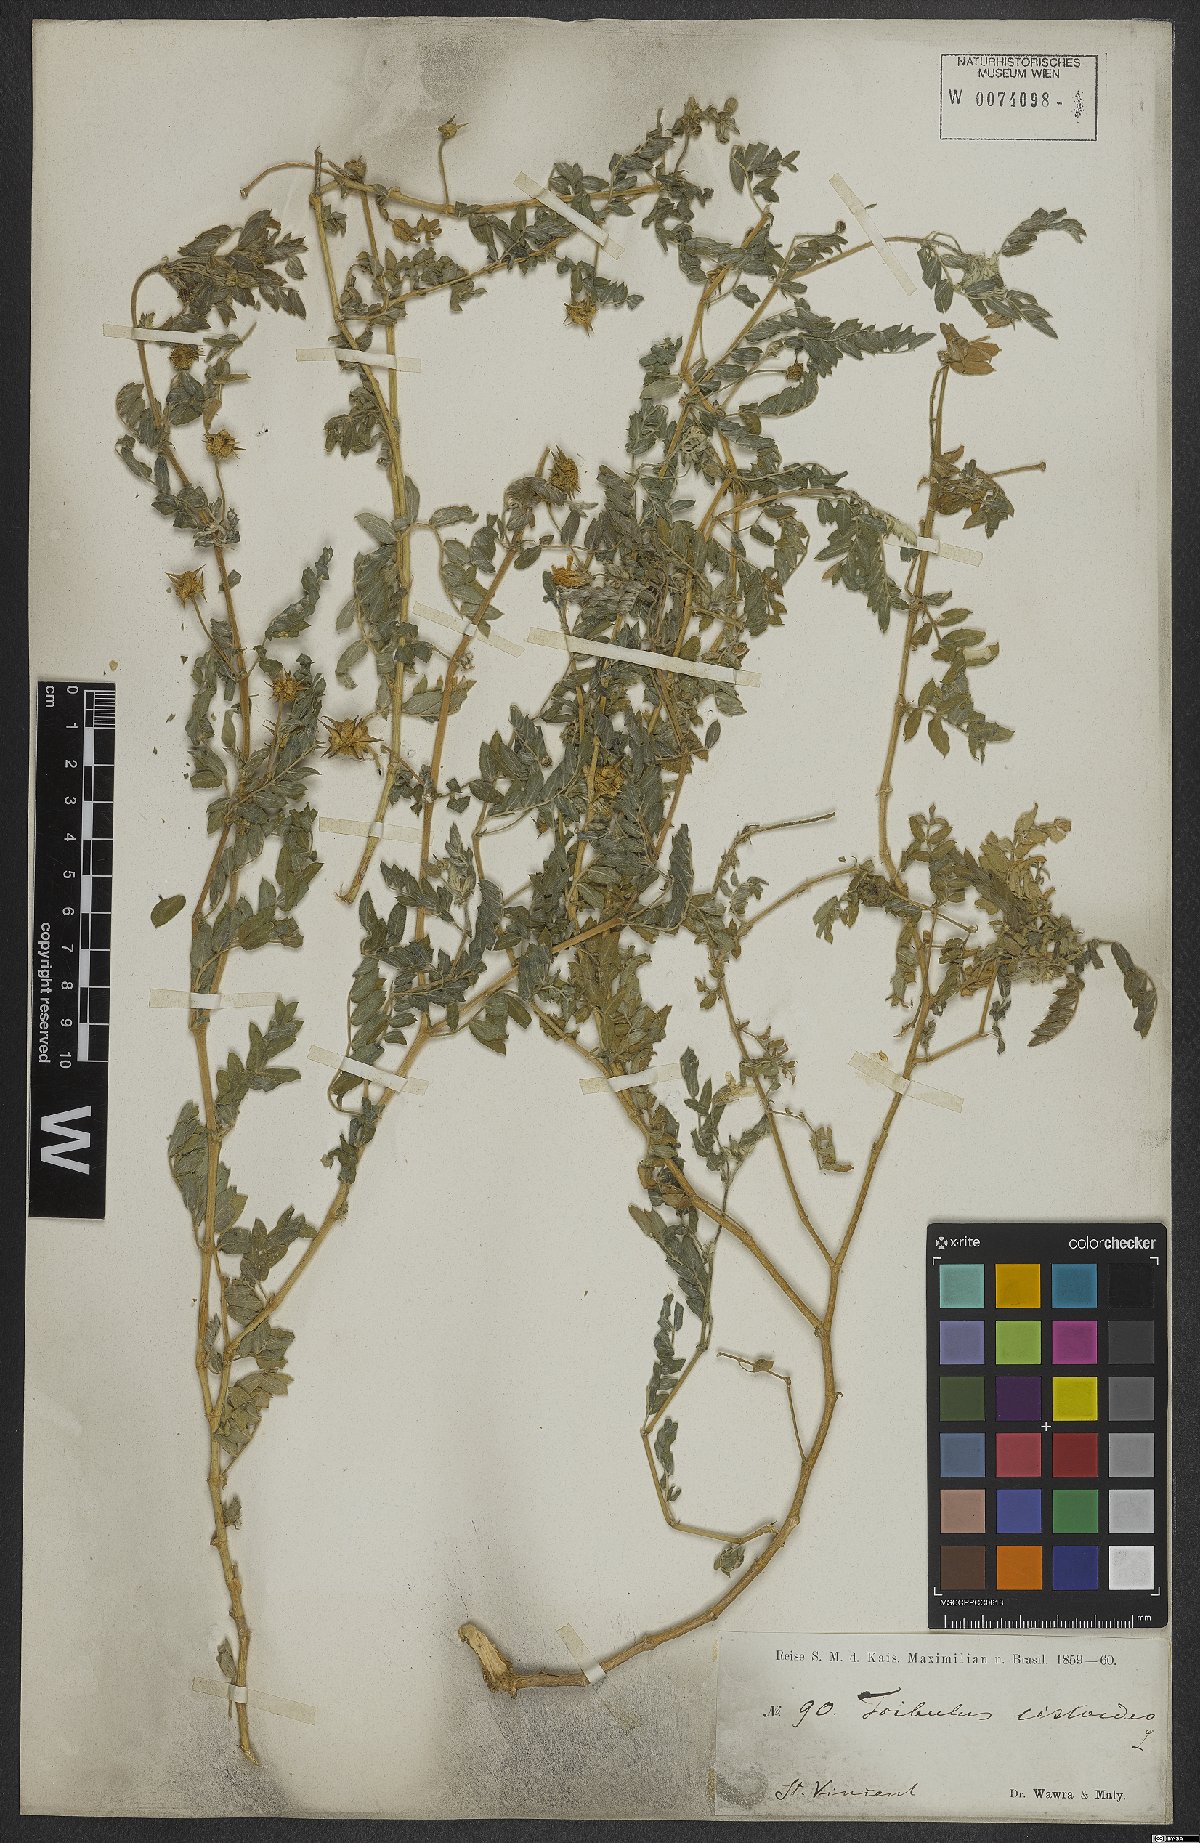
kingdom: Plantae
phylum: Tracheophyta
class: Magnoliopsida
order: Zygophyllales
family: Zygophyllaceae
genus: Tribulus
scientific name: Tribulus cistoides
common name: Jamaican feverplant
